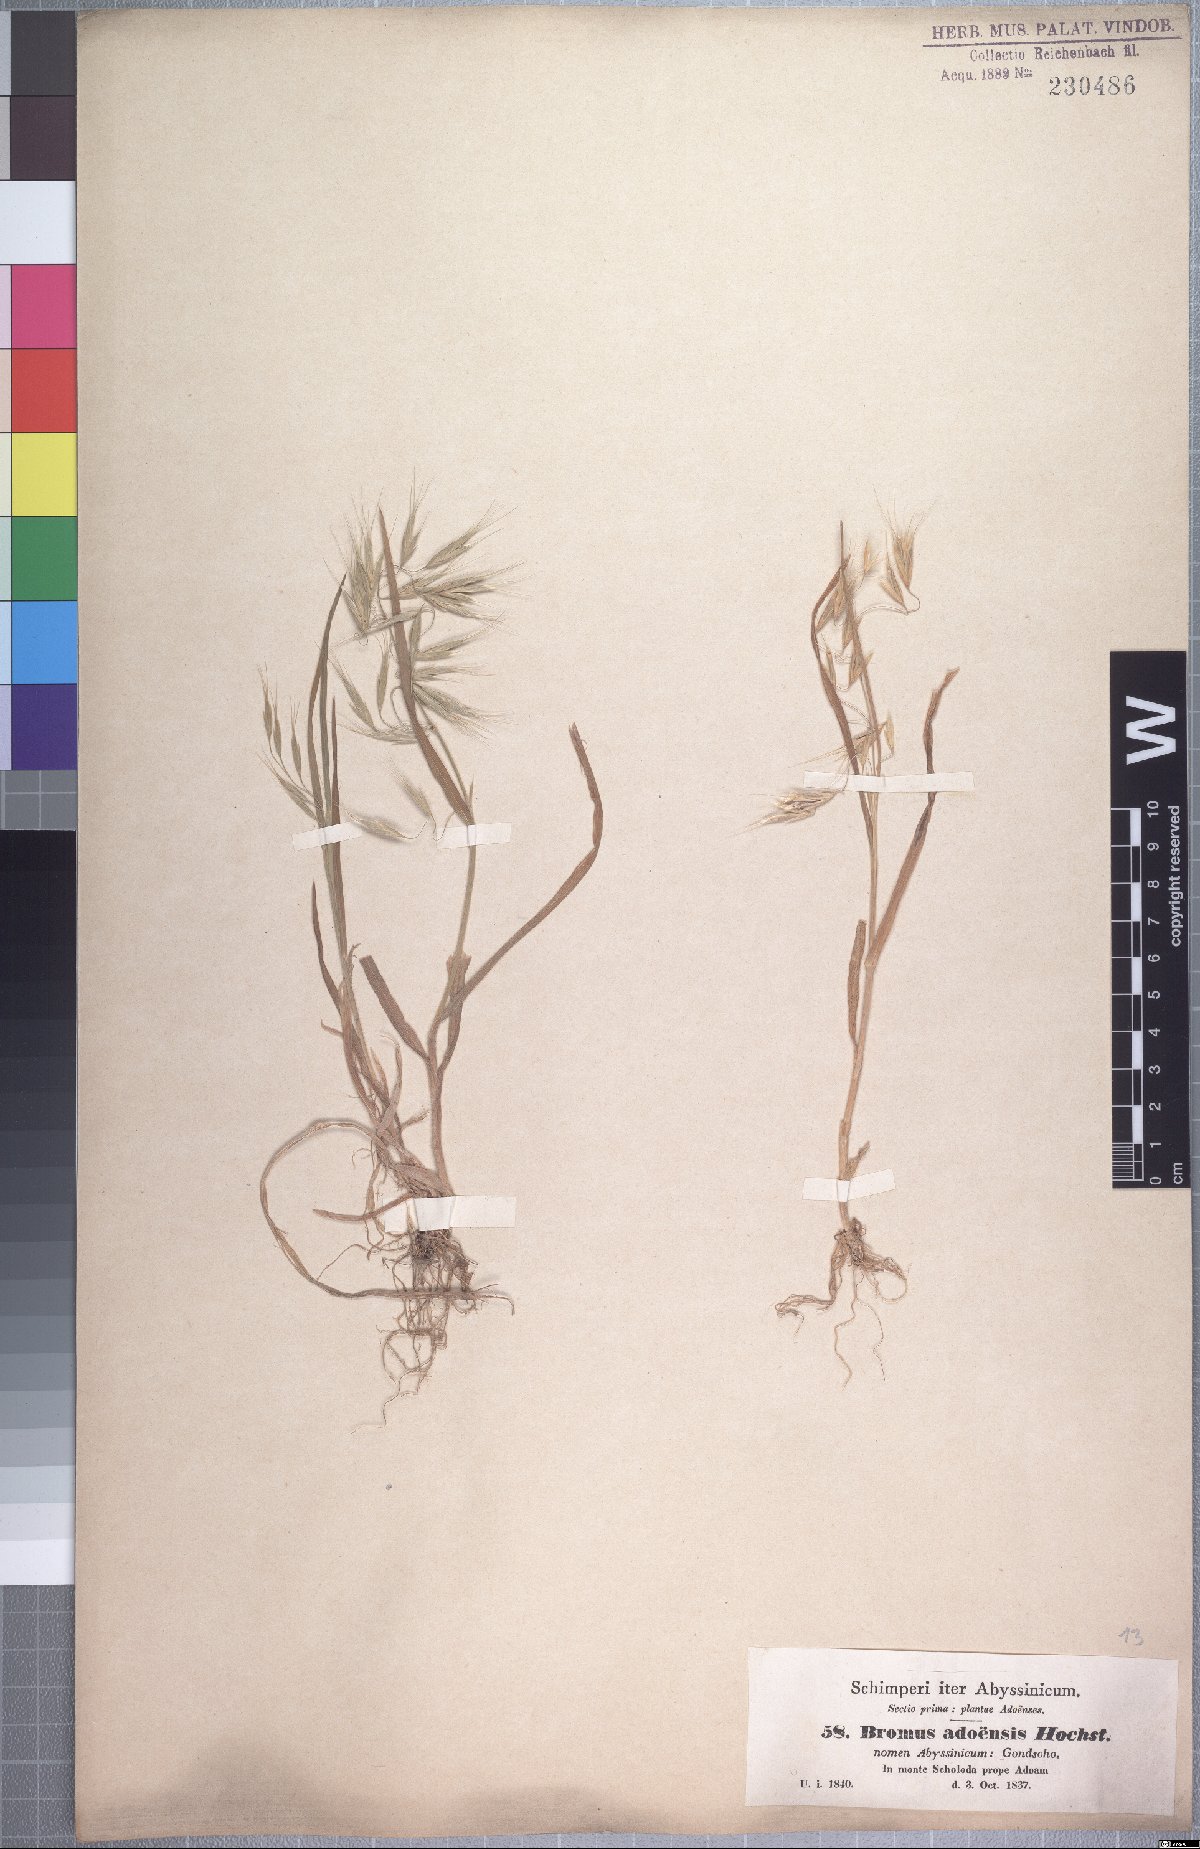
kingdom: Plantae
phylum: Tracheophyta
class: Liliopsida
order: Poales
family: Poaceae
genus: Bromus
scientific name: Bromus pectinatus
